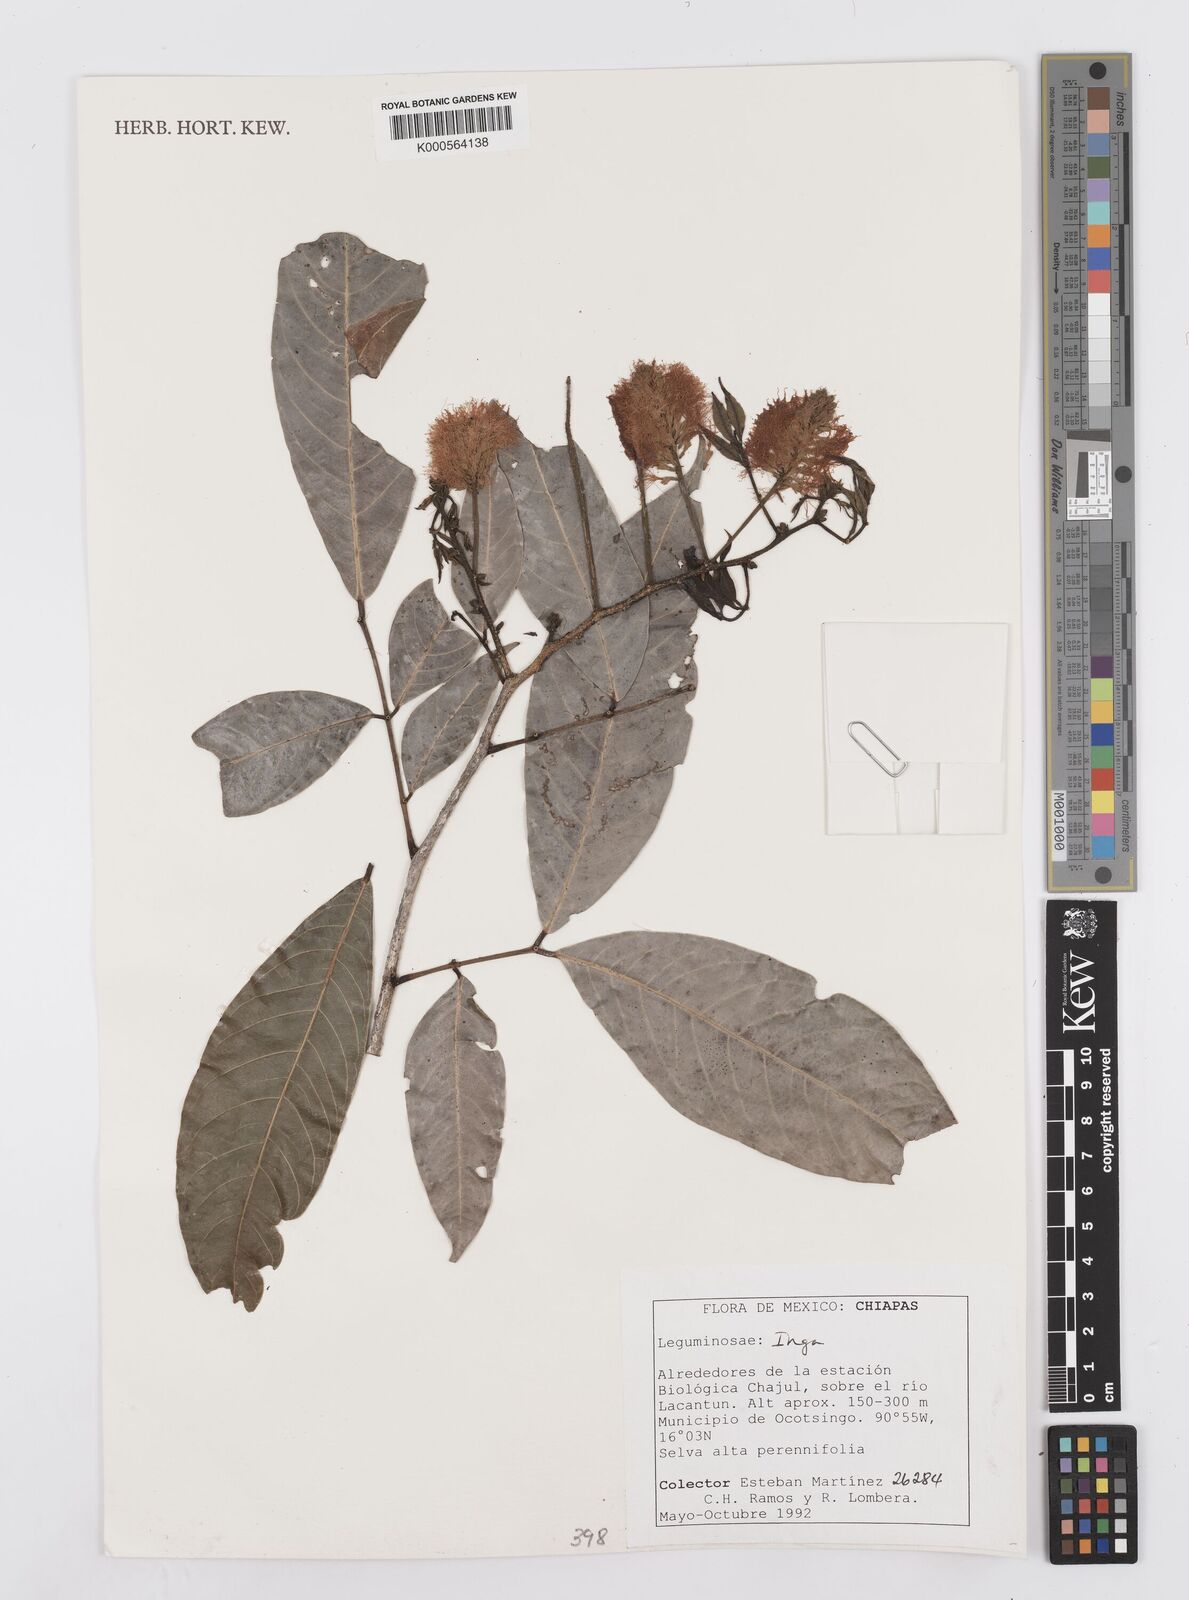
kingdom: Plantae
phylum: Tracheophyta
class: Magnoliopsida
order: Fabales
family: Fabaceae
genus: Inga
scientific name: Inga
